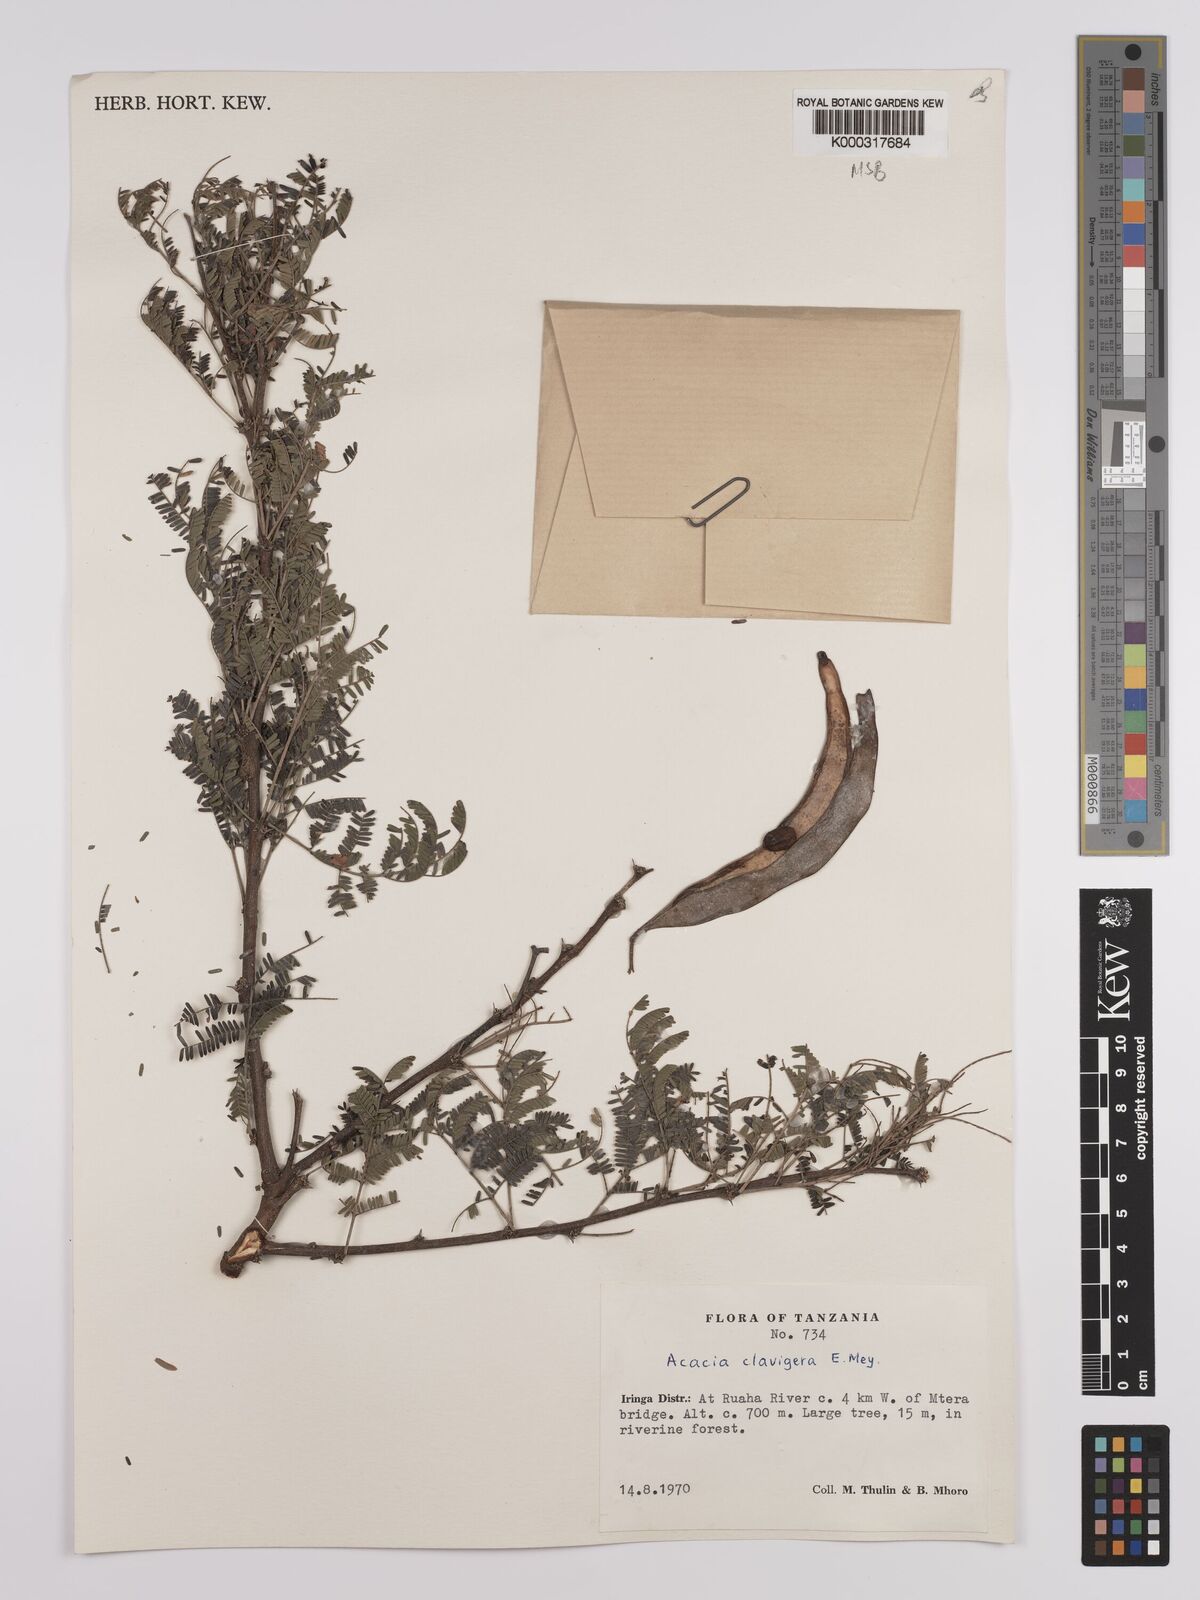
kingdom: Plantae
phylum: Tracheophyta
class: Magnoliopsida
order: Fabales
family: Fabaceae
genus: Vachellia
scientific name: Vachellia robusta
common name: Ankle thorn
